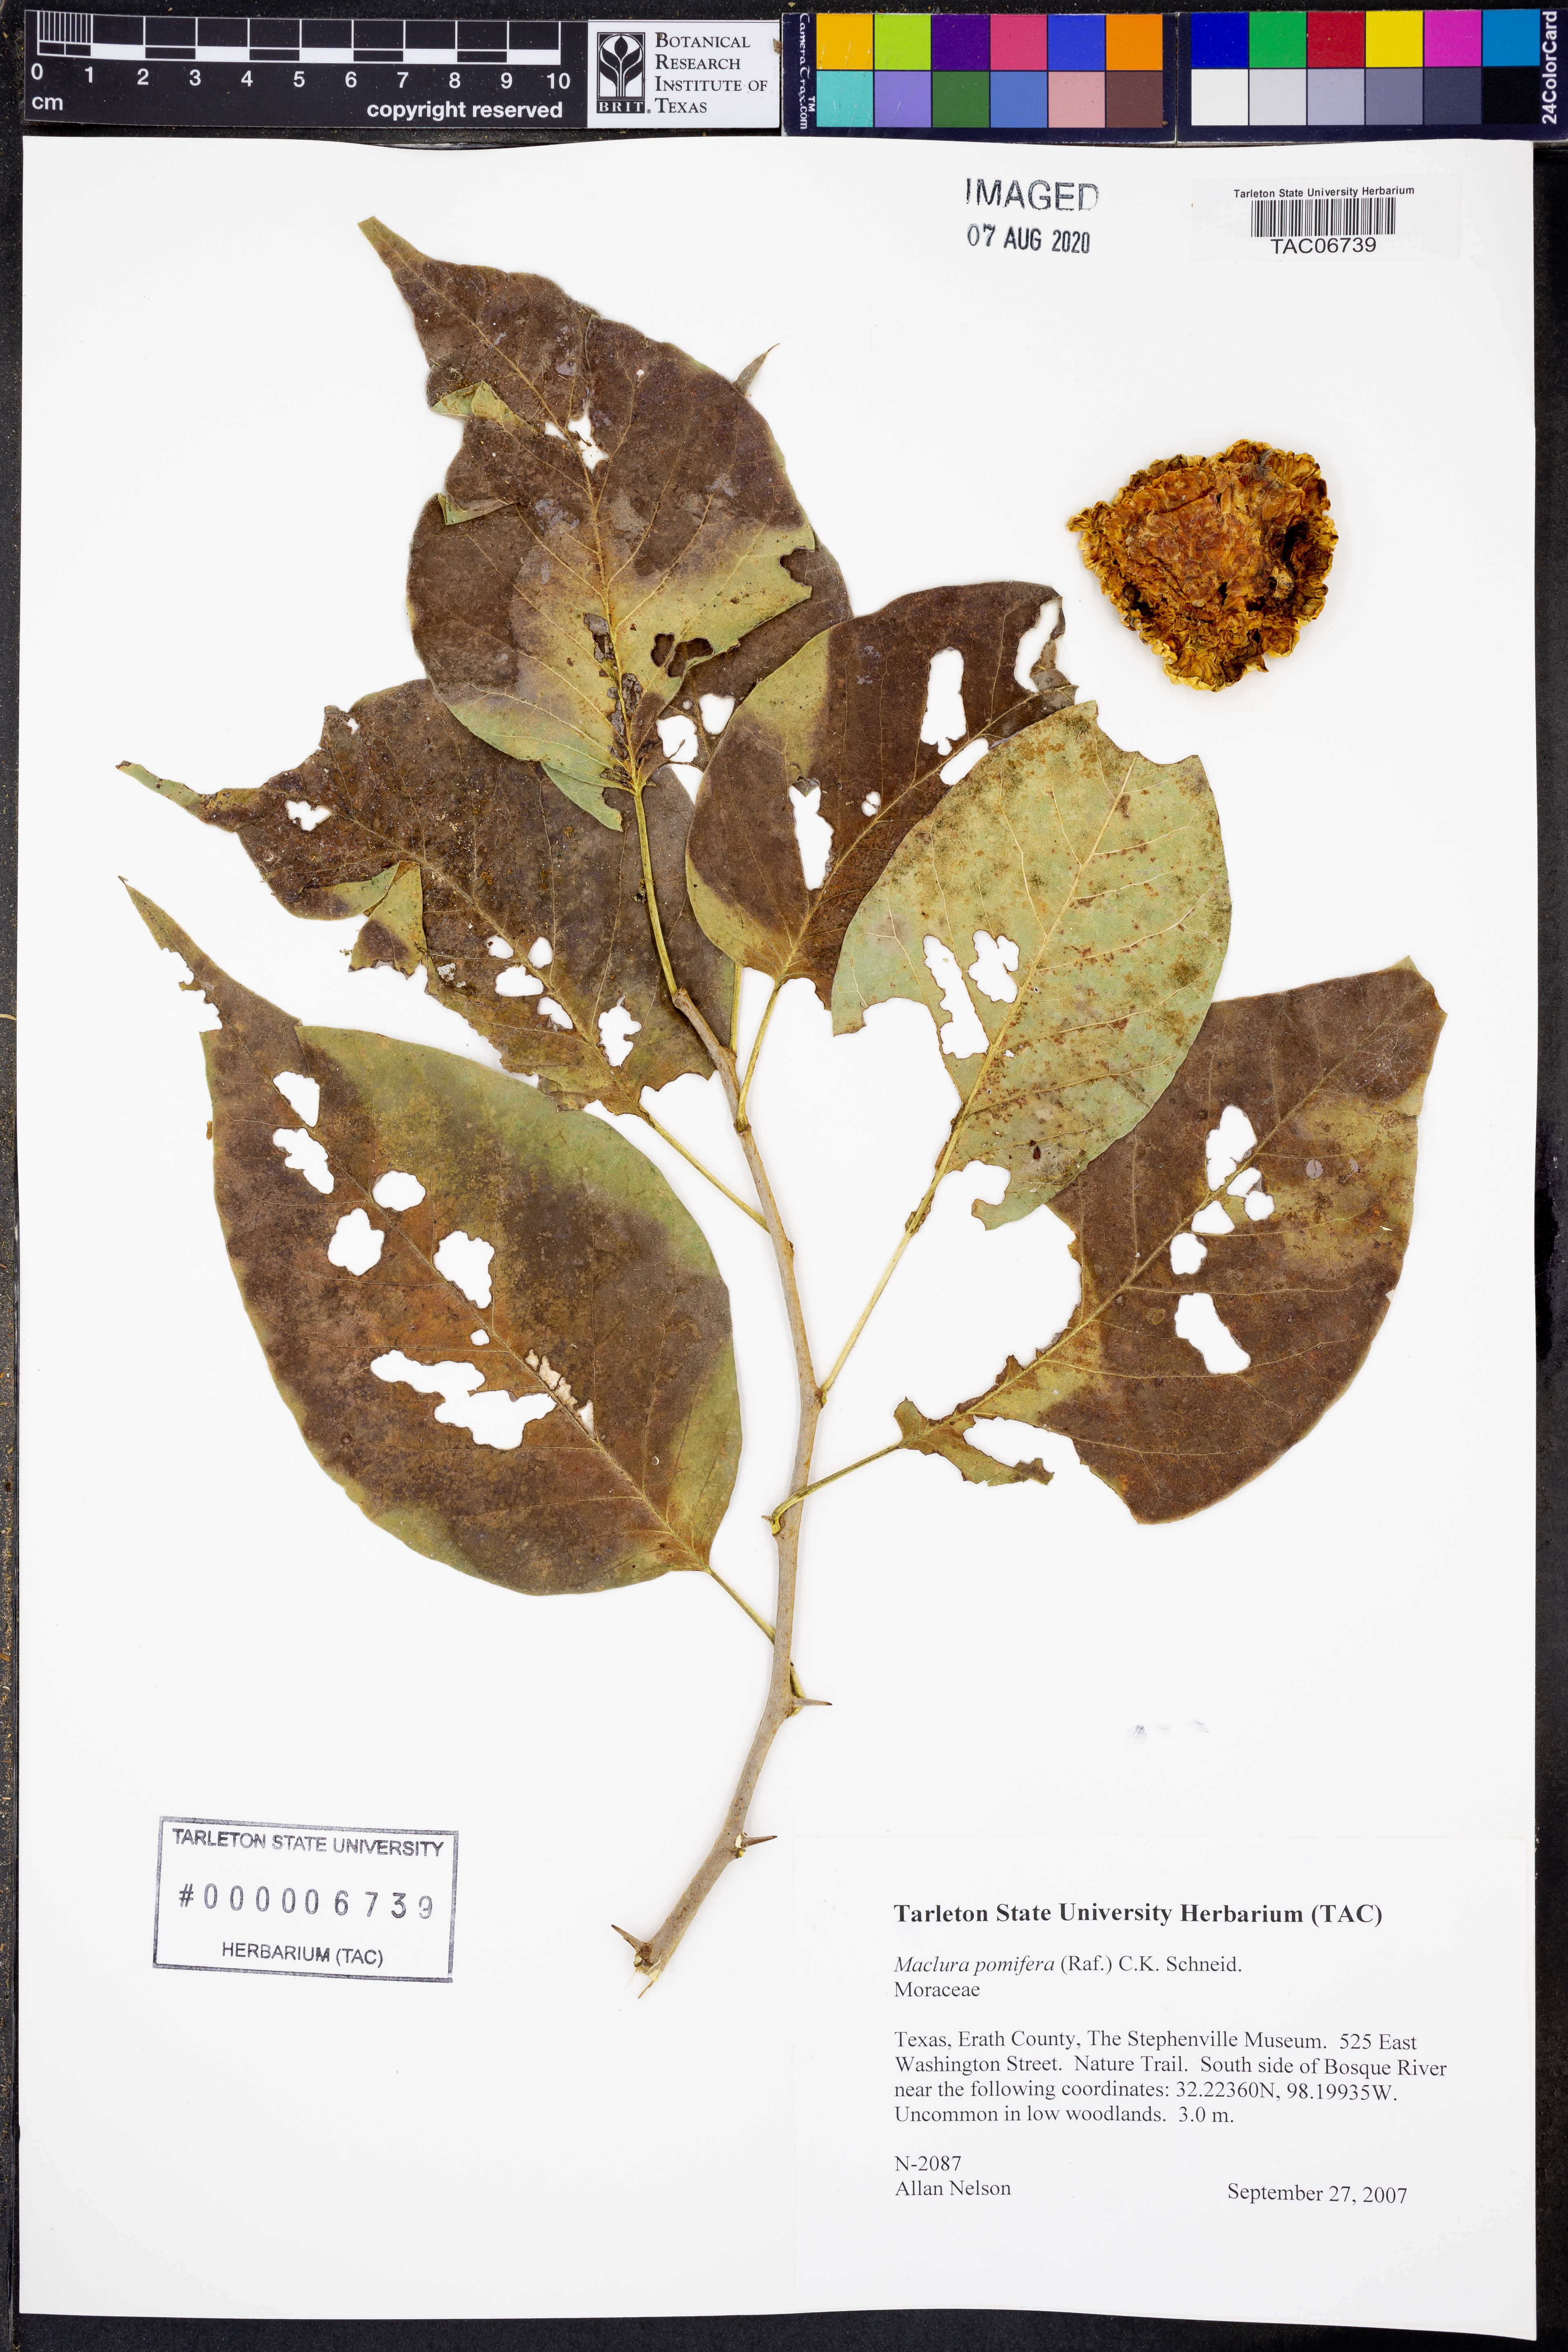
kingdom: Plantae
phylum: Tracheophyta
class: Magnoliopsida
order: Rosales
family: Moraceae
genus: Maclura
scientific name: Maclura pomifera
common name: Osage-orange
